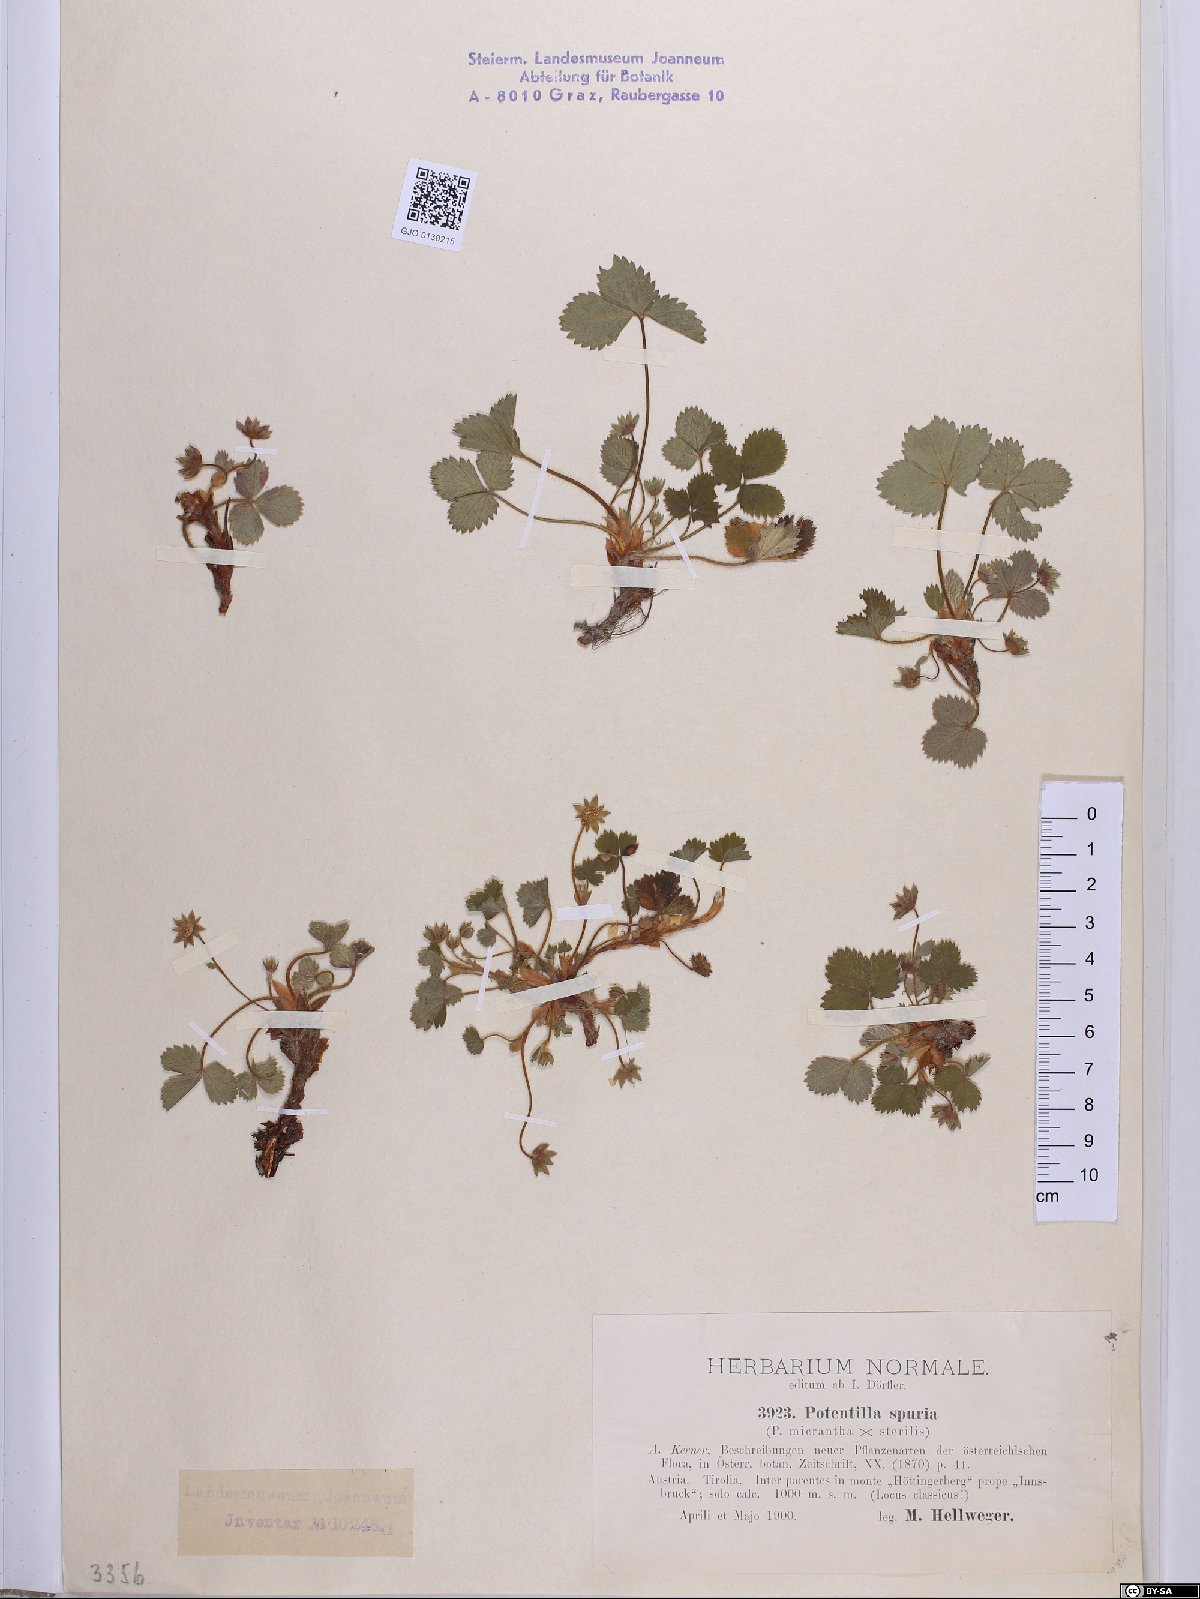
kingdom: Plantae
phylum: Tracheophyta
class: Magnoliopsida
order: Rosales
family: Rosaceae
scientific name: Rosaceae
